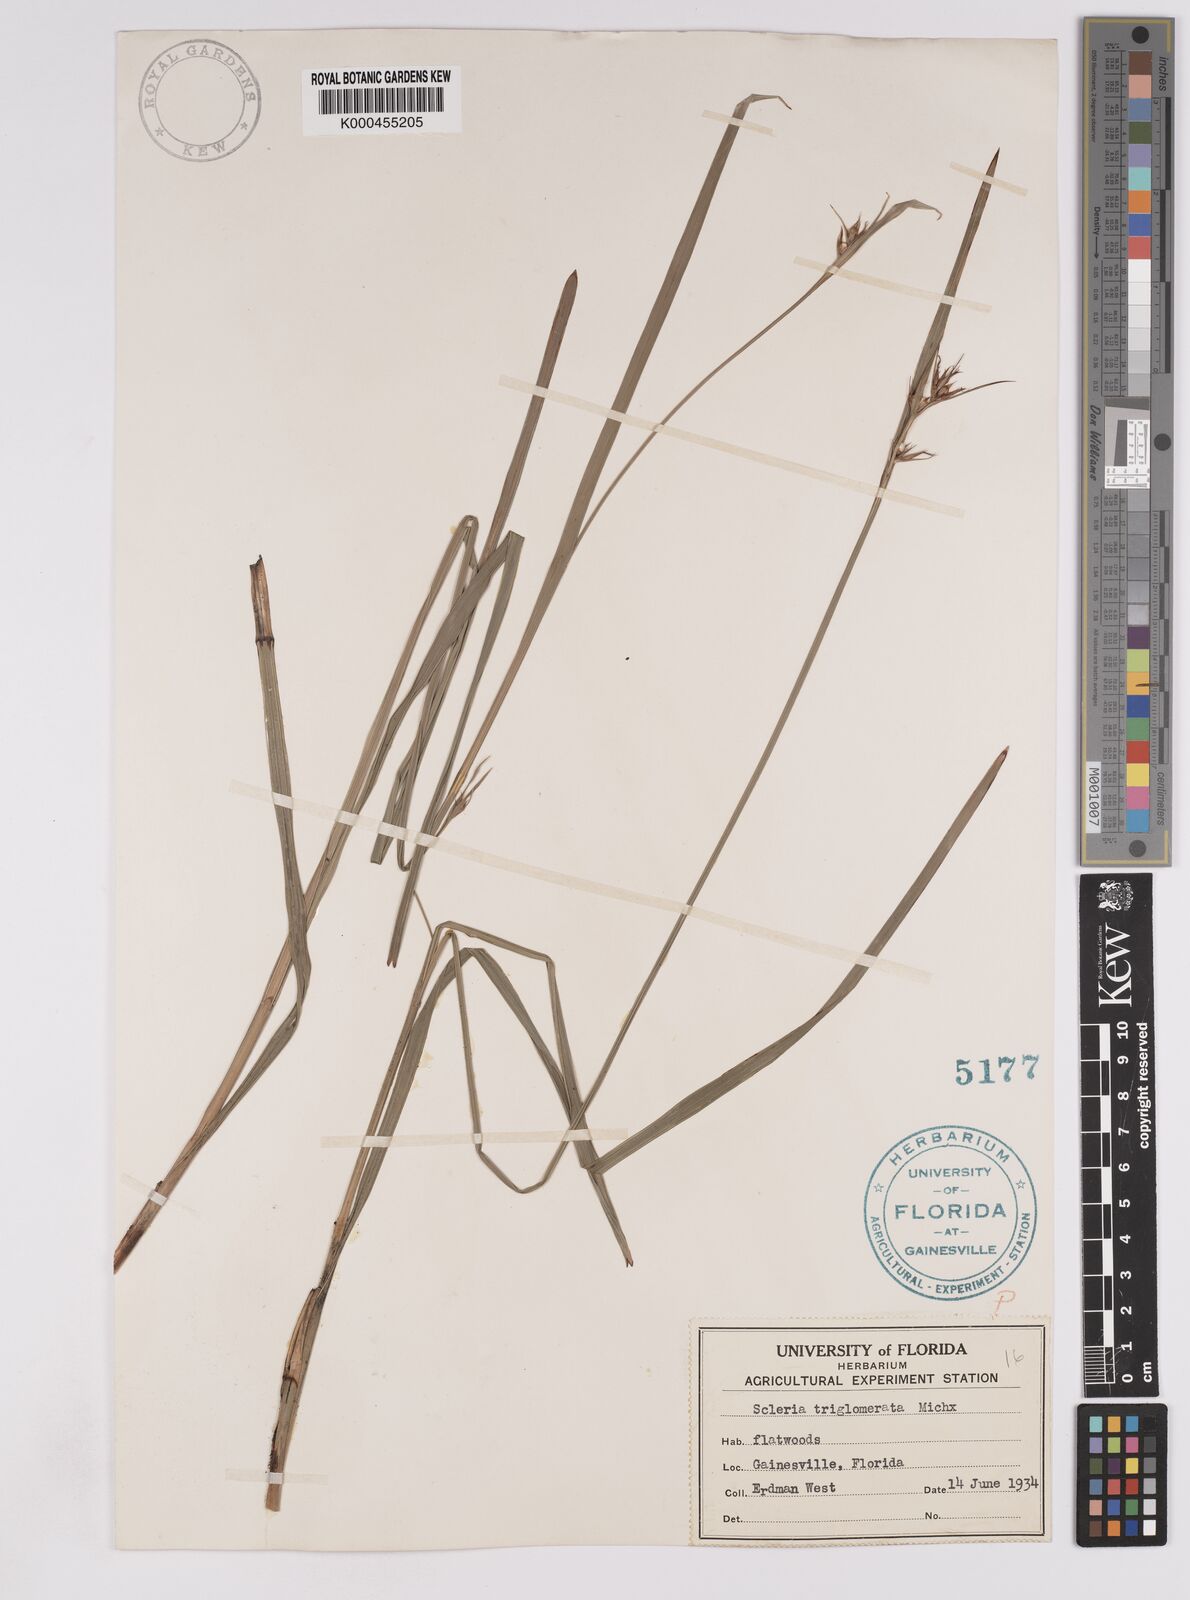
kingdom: Plantae
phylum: Tracheophyta
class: Liliopsida
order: Poales
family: Cyperaceae
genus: Scleria
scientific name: Scleria triglomerata
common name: Whip nutrush
